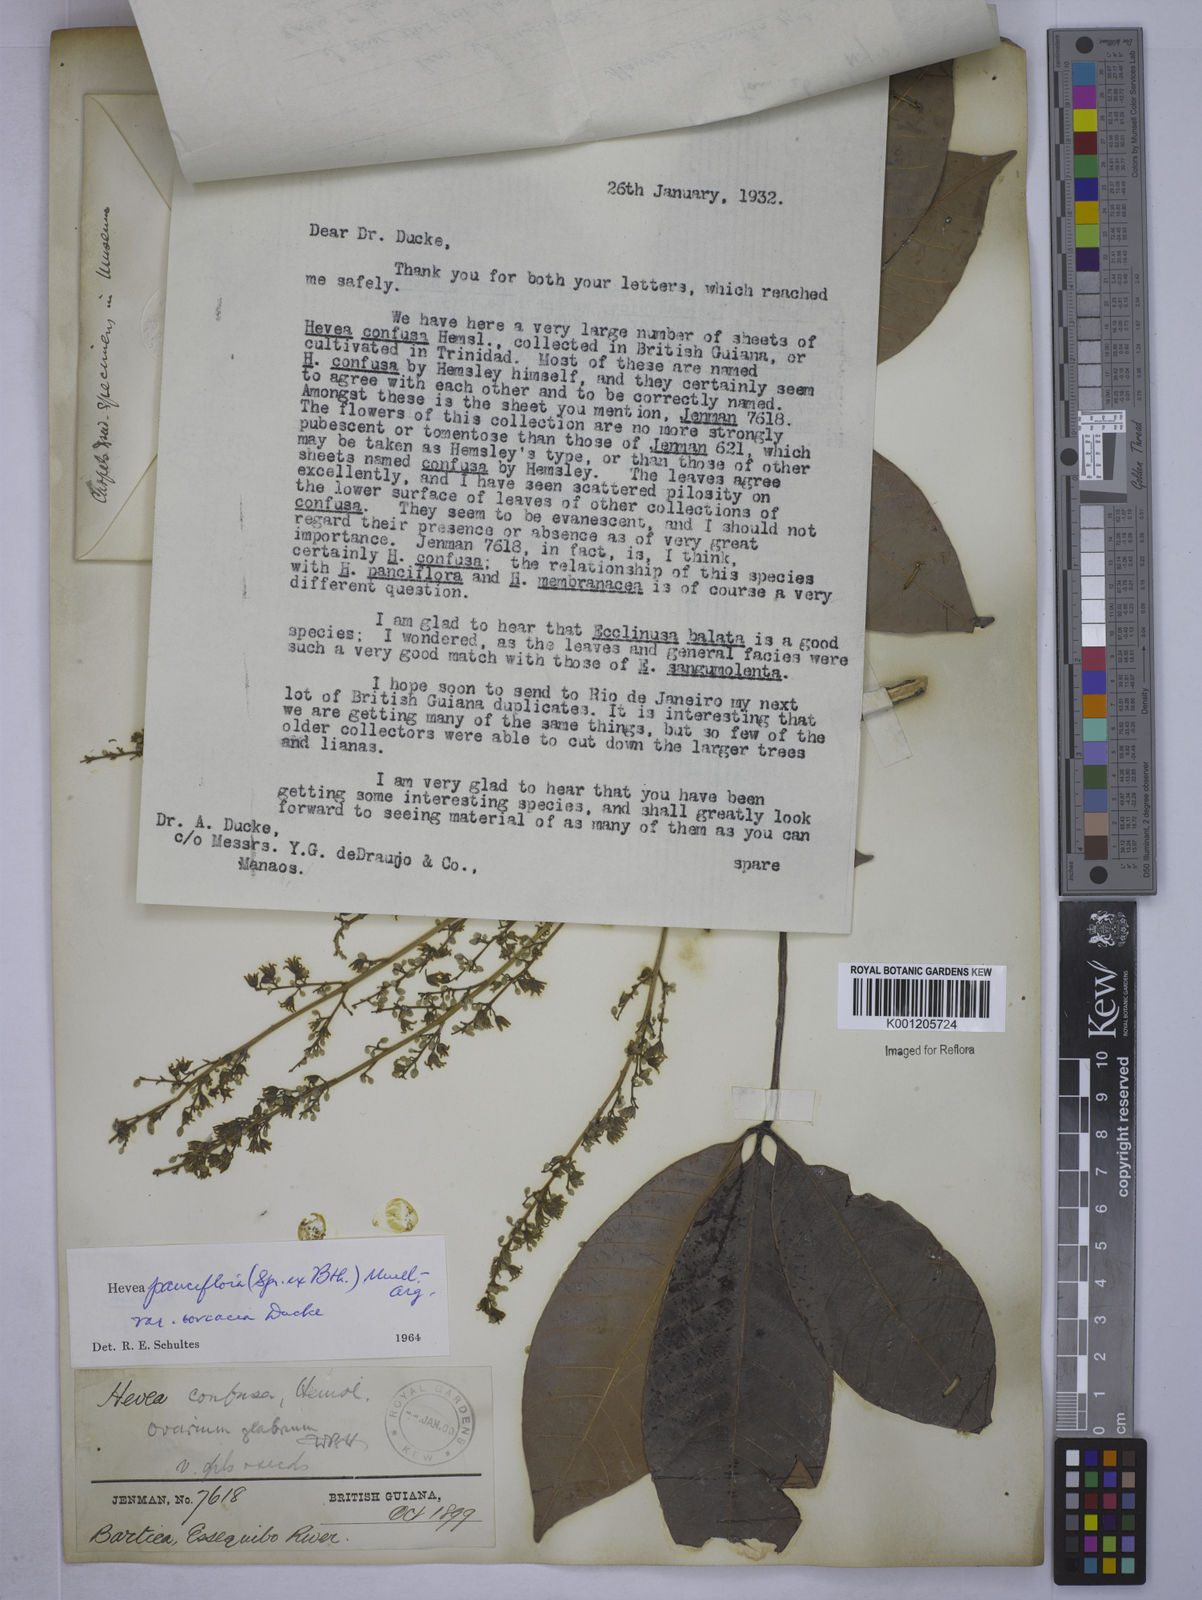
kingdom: Plantae
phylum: Tracheophyta
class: Magnoliopsida
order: Malpighiales
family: Euphorbiaceae
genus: Hevea
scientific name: Hevea
